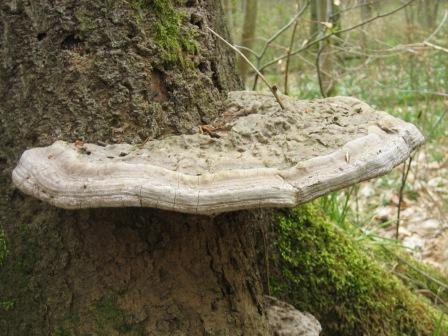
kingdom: Fungi
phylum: Basidiomycota
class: Agaricomycetes
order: Polyporales
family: Polyporaceae
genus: Ganoderma
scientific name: Ganoderma applanatum
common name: flad lakporesvamp
